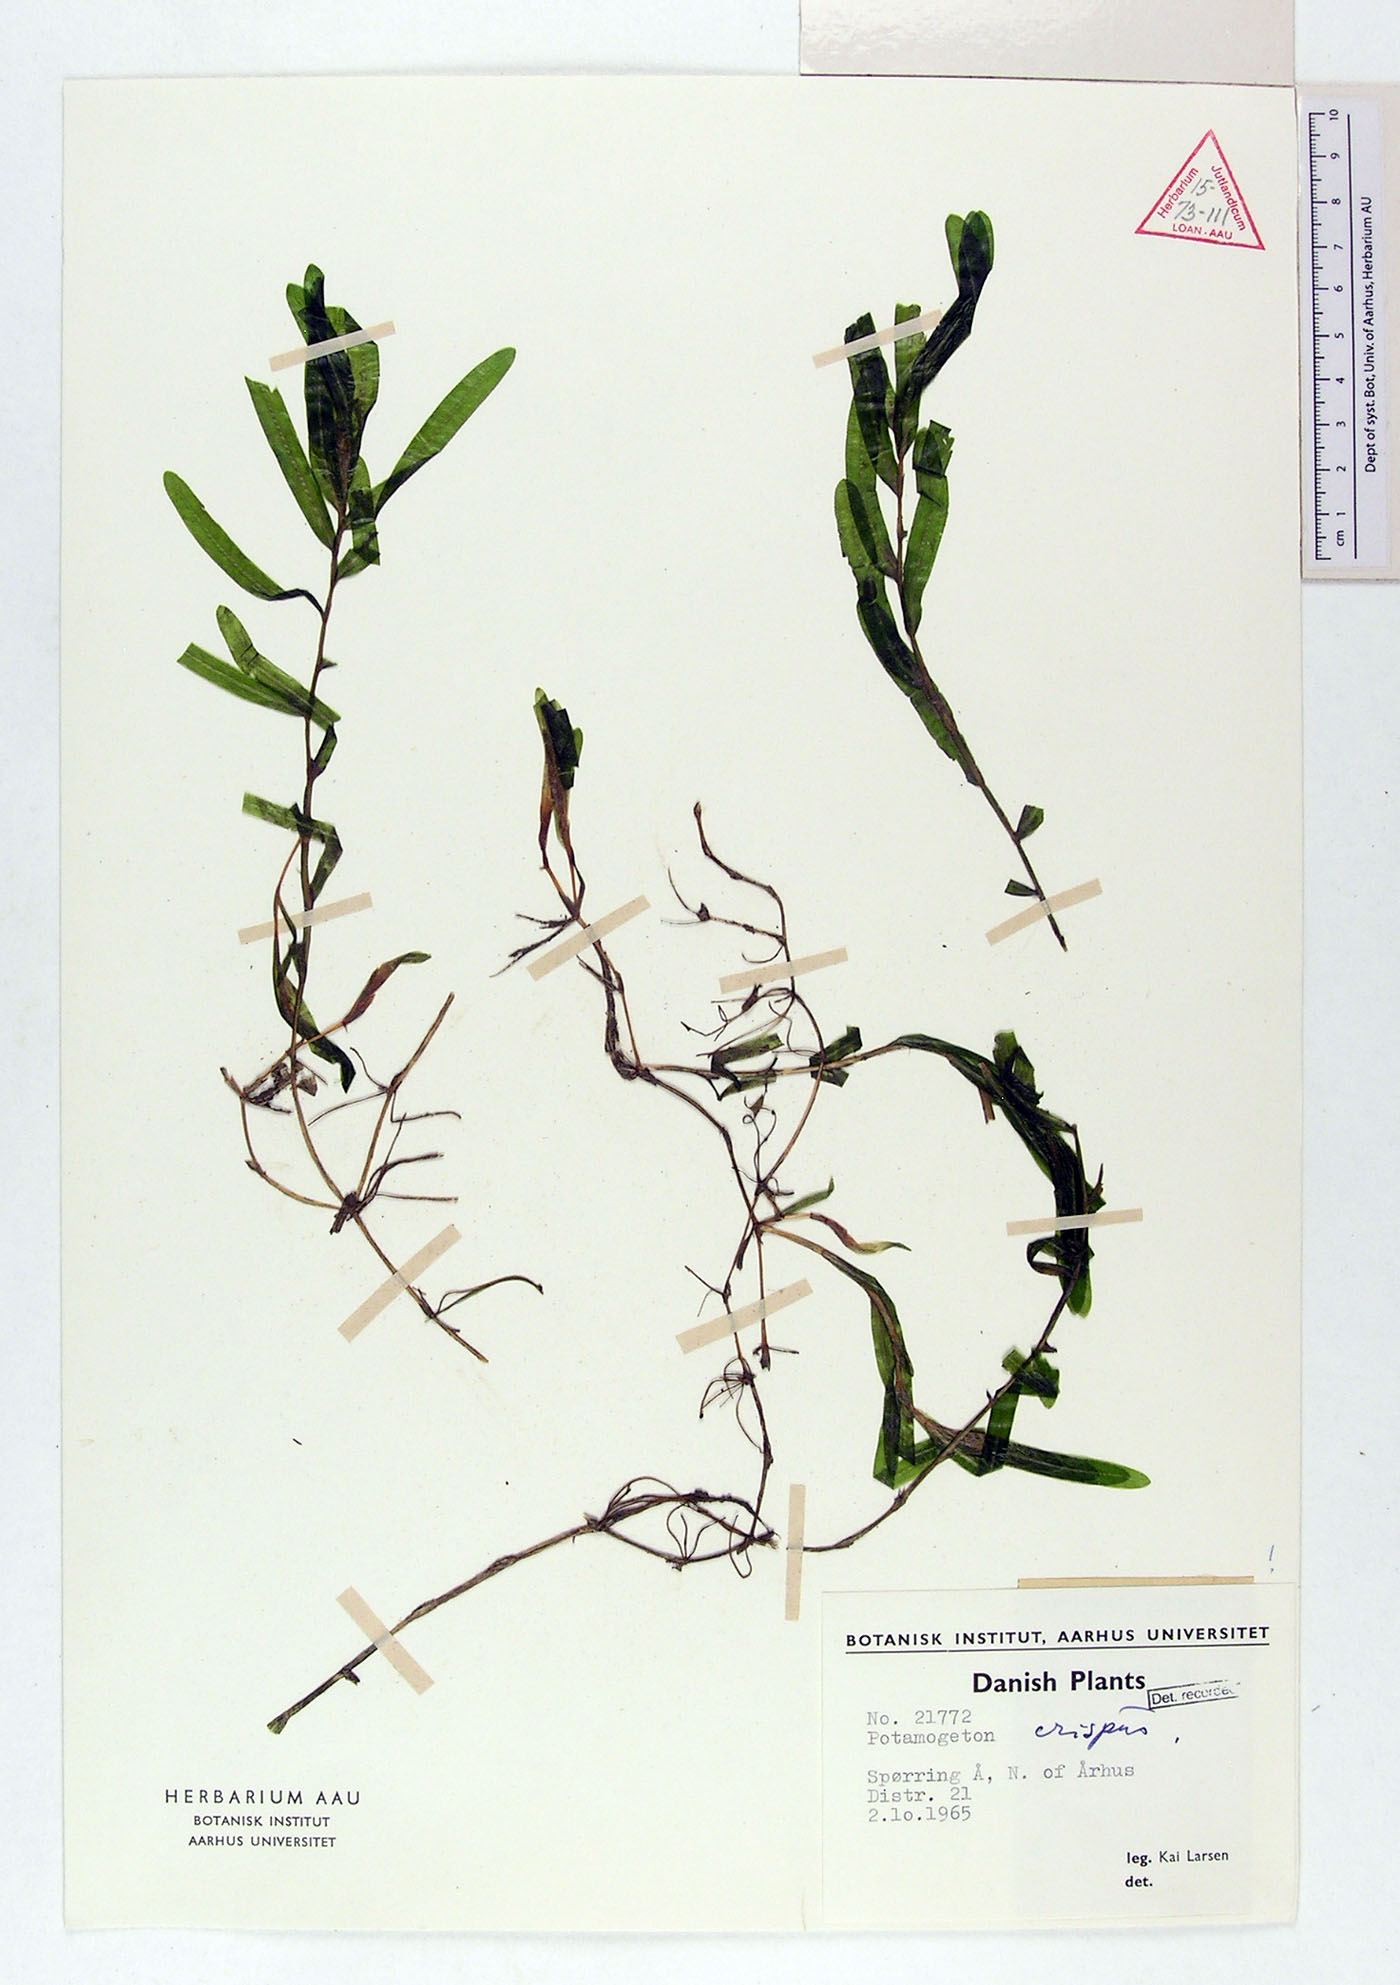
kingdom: Plantae
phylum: Tracheophyta
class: Liliopsida
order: Alismatales
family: Potamogetonaceae
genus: Potamogeton
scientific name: Potamogeton crispus
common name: Curled pondweed
